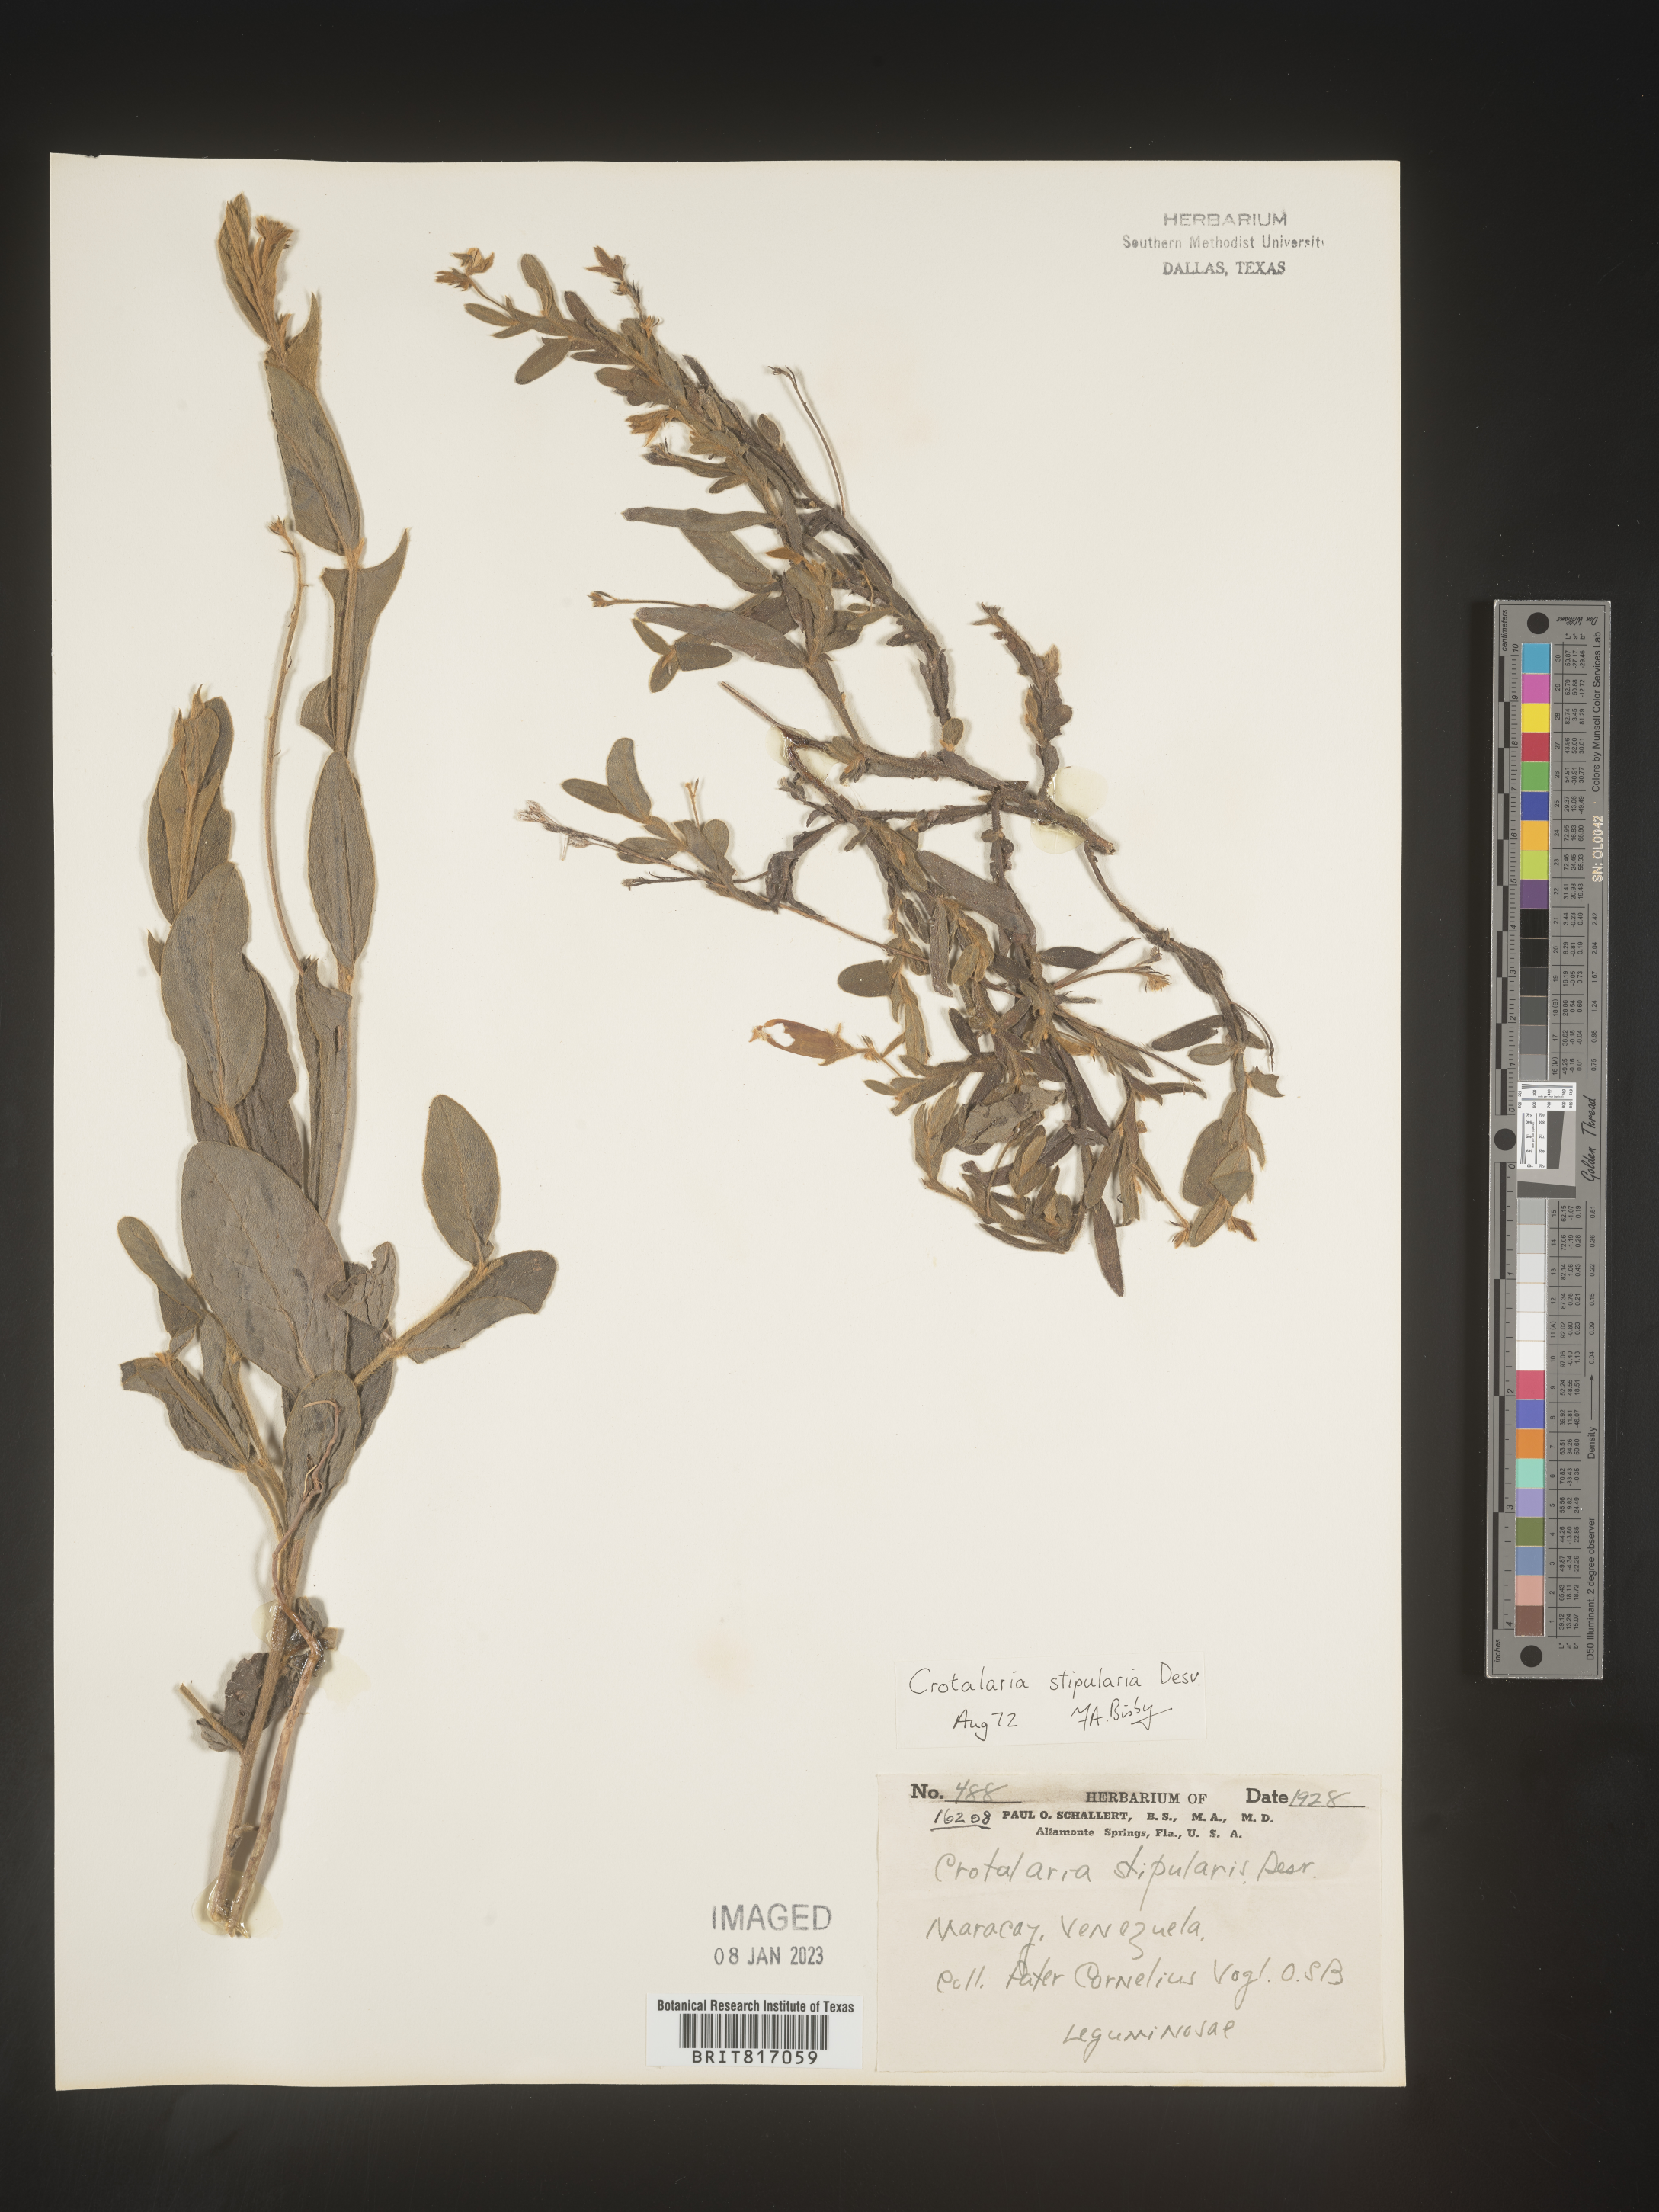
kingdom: Plantae
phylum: Tracheophyta
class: Magnoliopsida
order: Fabales
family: Fabaceae
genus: Crotalaria
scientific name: Crotalaria
